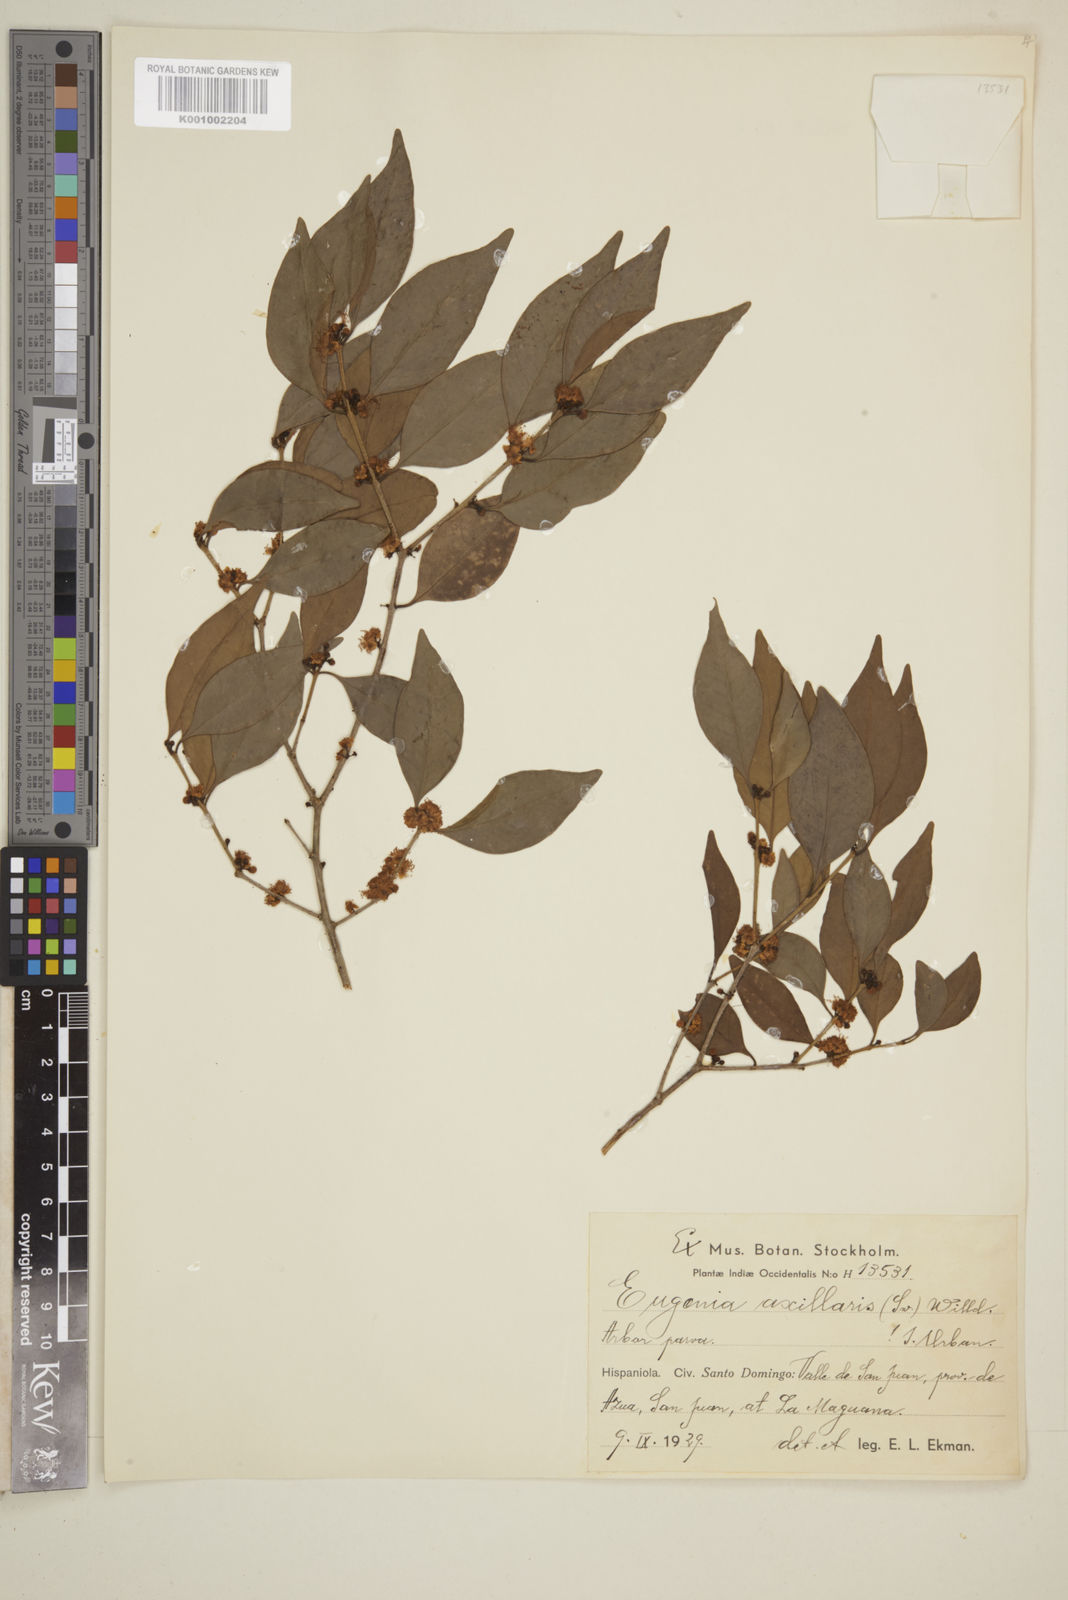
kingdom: Plantae
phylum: Tracheophyta
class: Magnoliopsida
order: Myrtales
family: Myrtaceae
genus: Eugenia
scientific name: Eugenia axillaris
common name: Choaky berry
